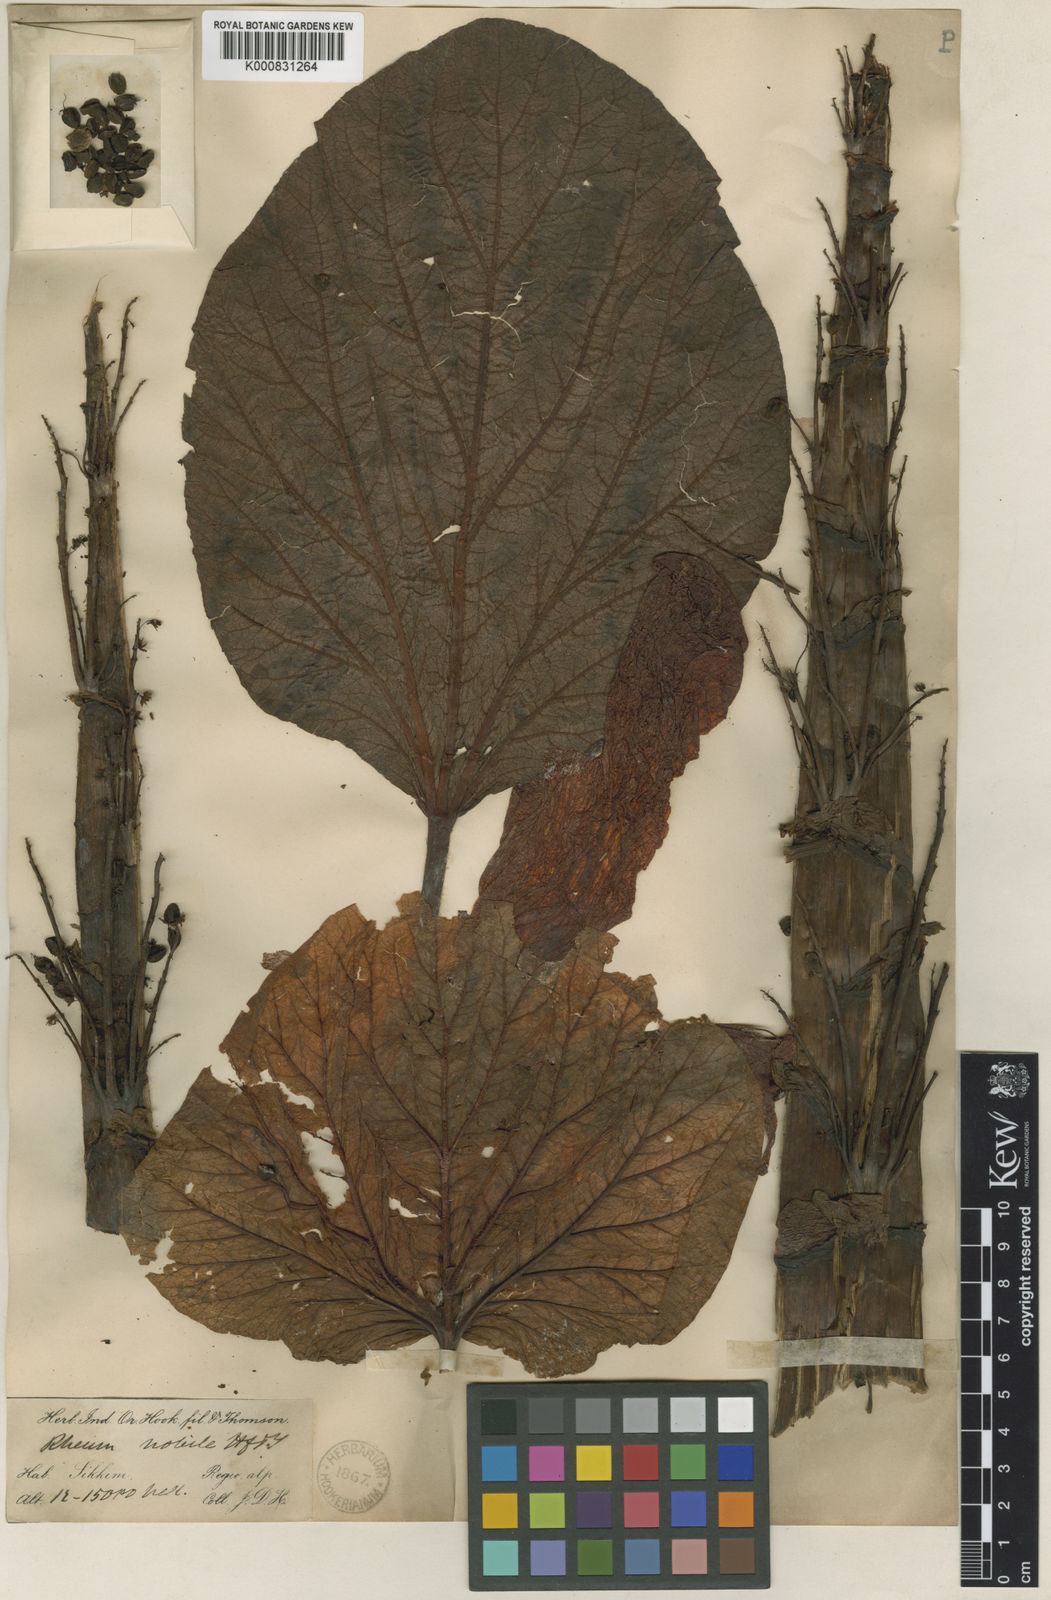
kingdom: Plantae
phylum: Tracheophyta
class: Magnoliopsida
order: Caryophyllales
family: Polygonaceae
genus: Rheum
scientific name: Rheum nobile
